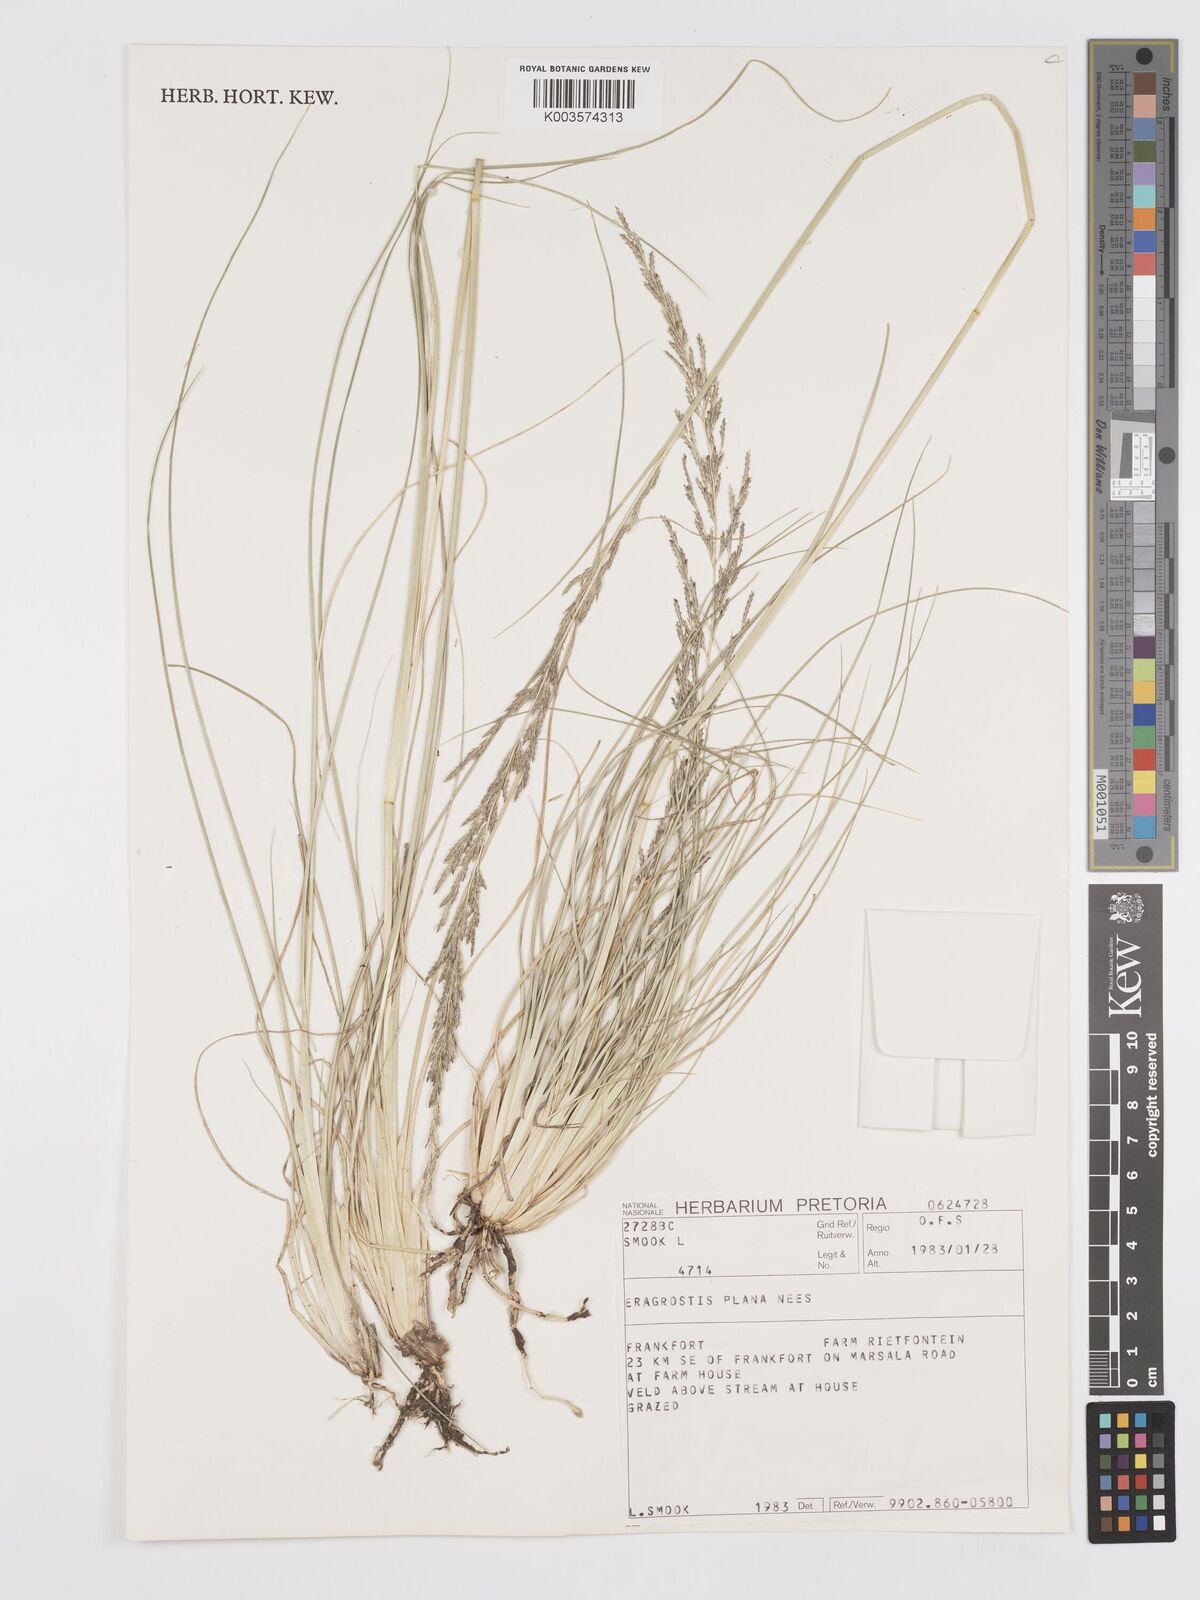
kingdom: Plantae
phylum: Tracheophyta
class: Liliopsida
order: Poales
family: Poaceae
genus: Eragrostis
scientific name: Eragrostis plana
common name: South african lovegrass
